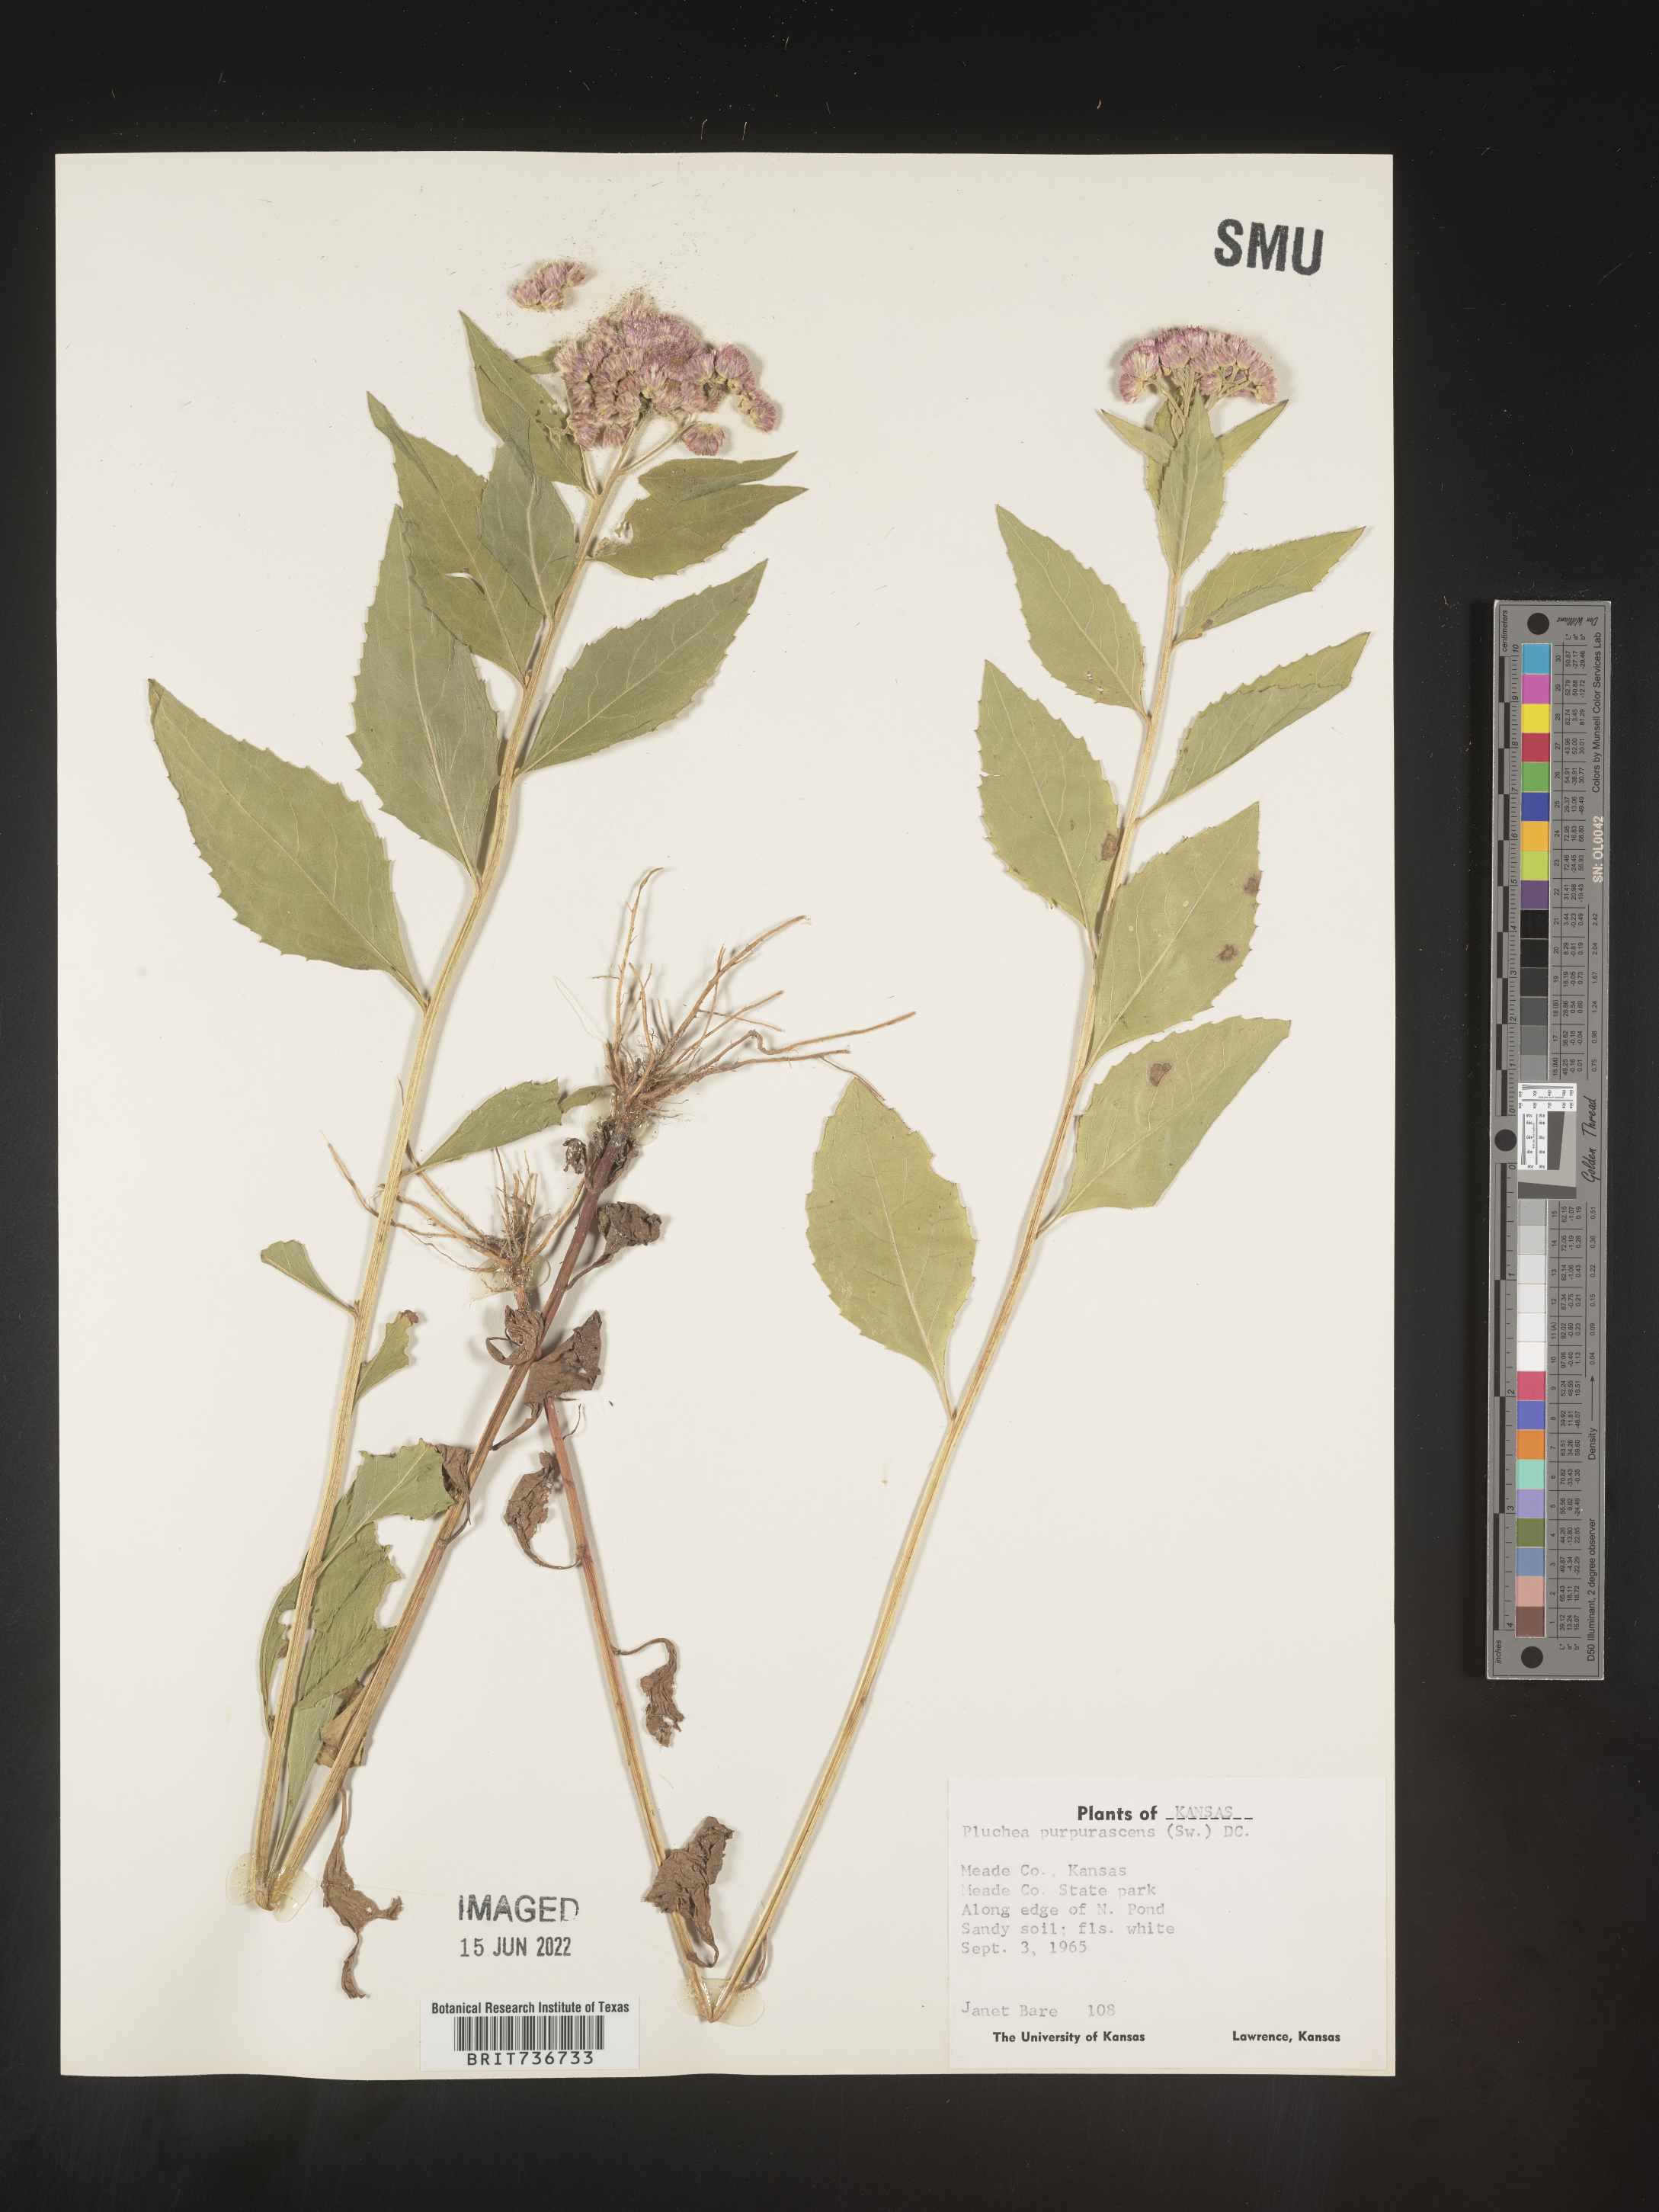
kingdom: Plantae
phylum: Tracheophyta
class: Magnoliopsida
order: Asterales
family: Asteraceae
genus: Pluchea
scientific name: Pluchea odorata
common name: Saltmarsh fleabane
